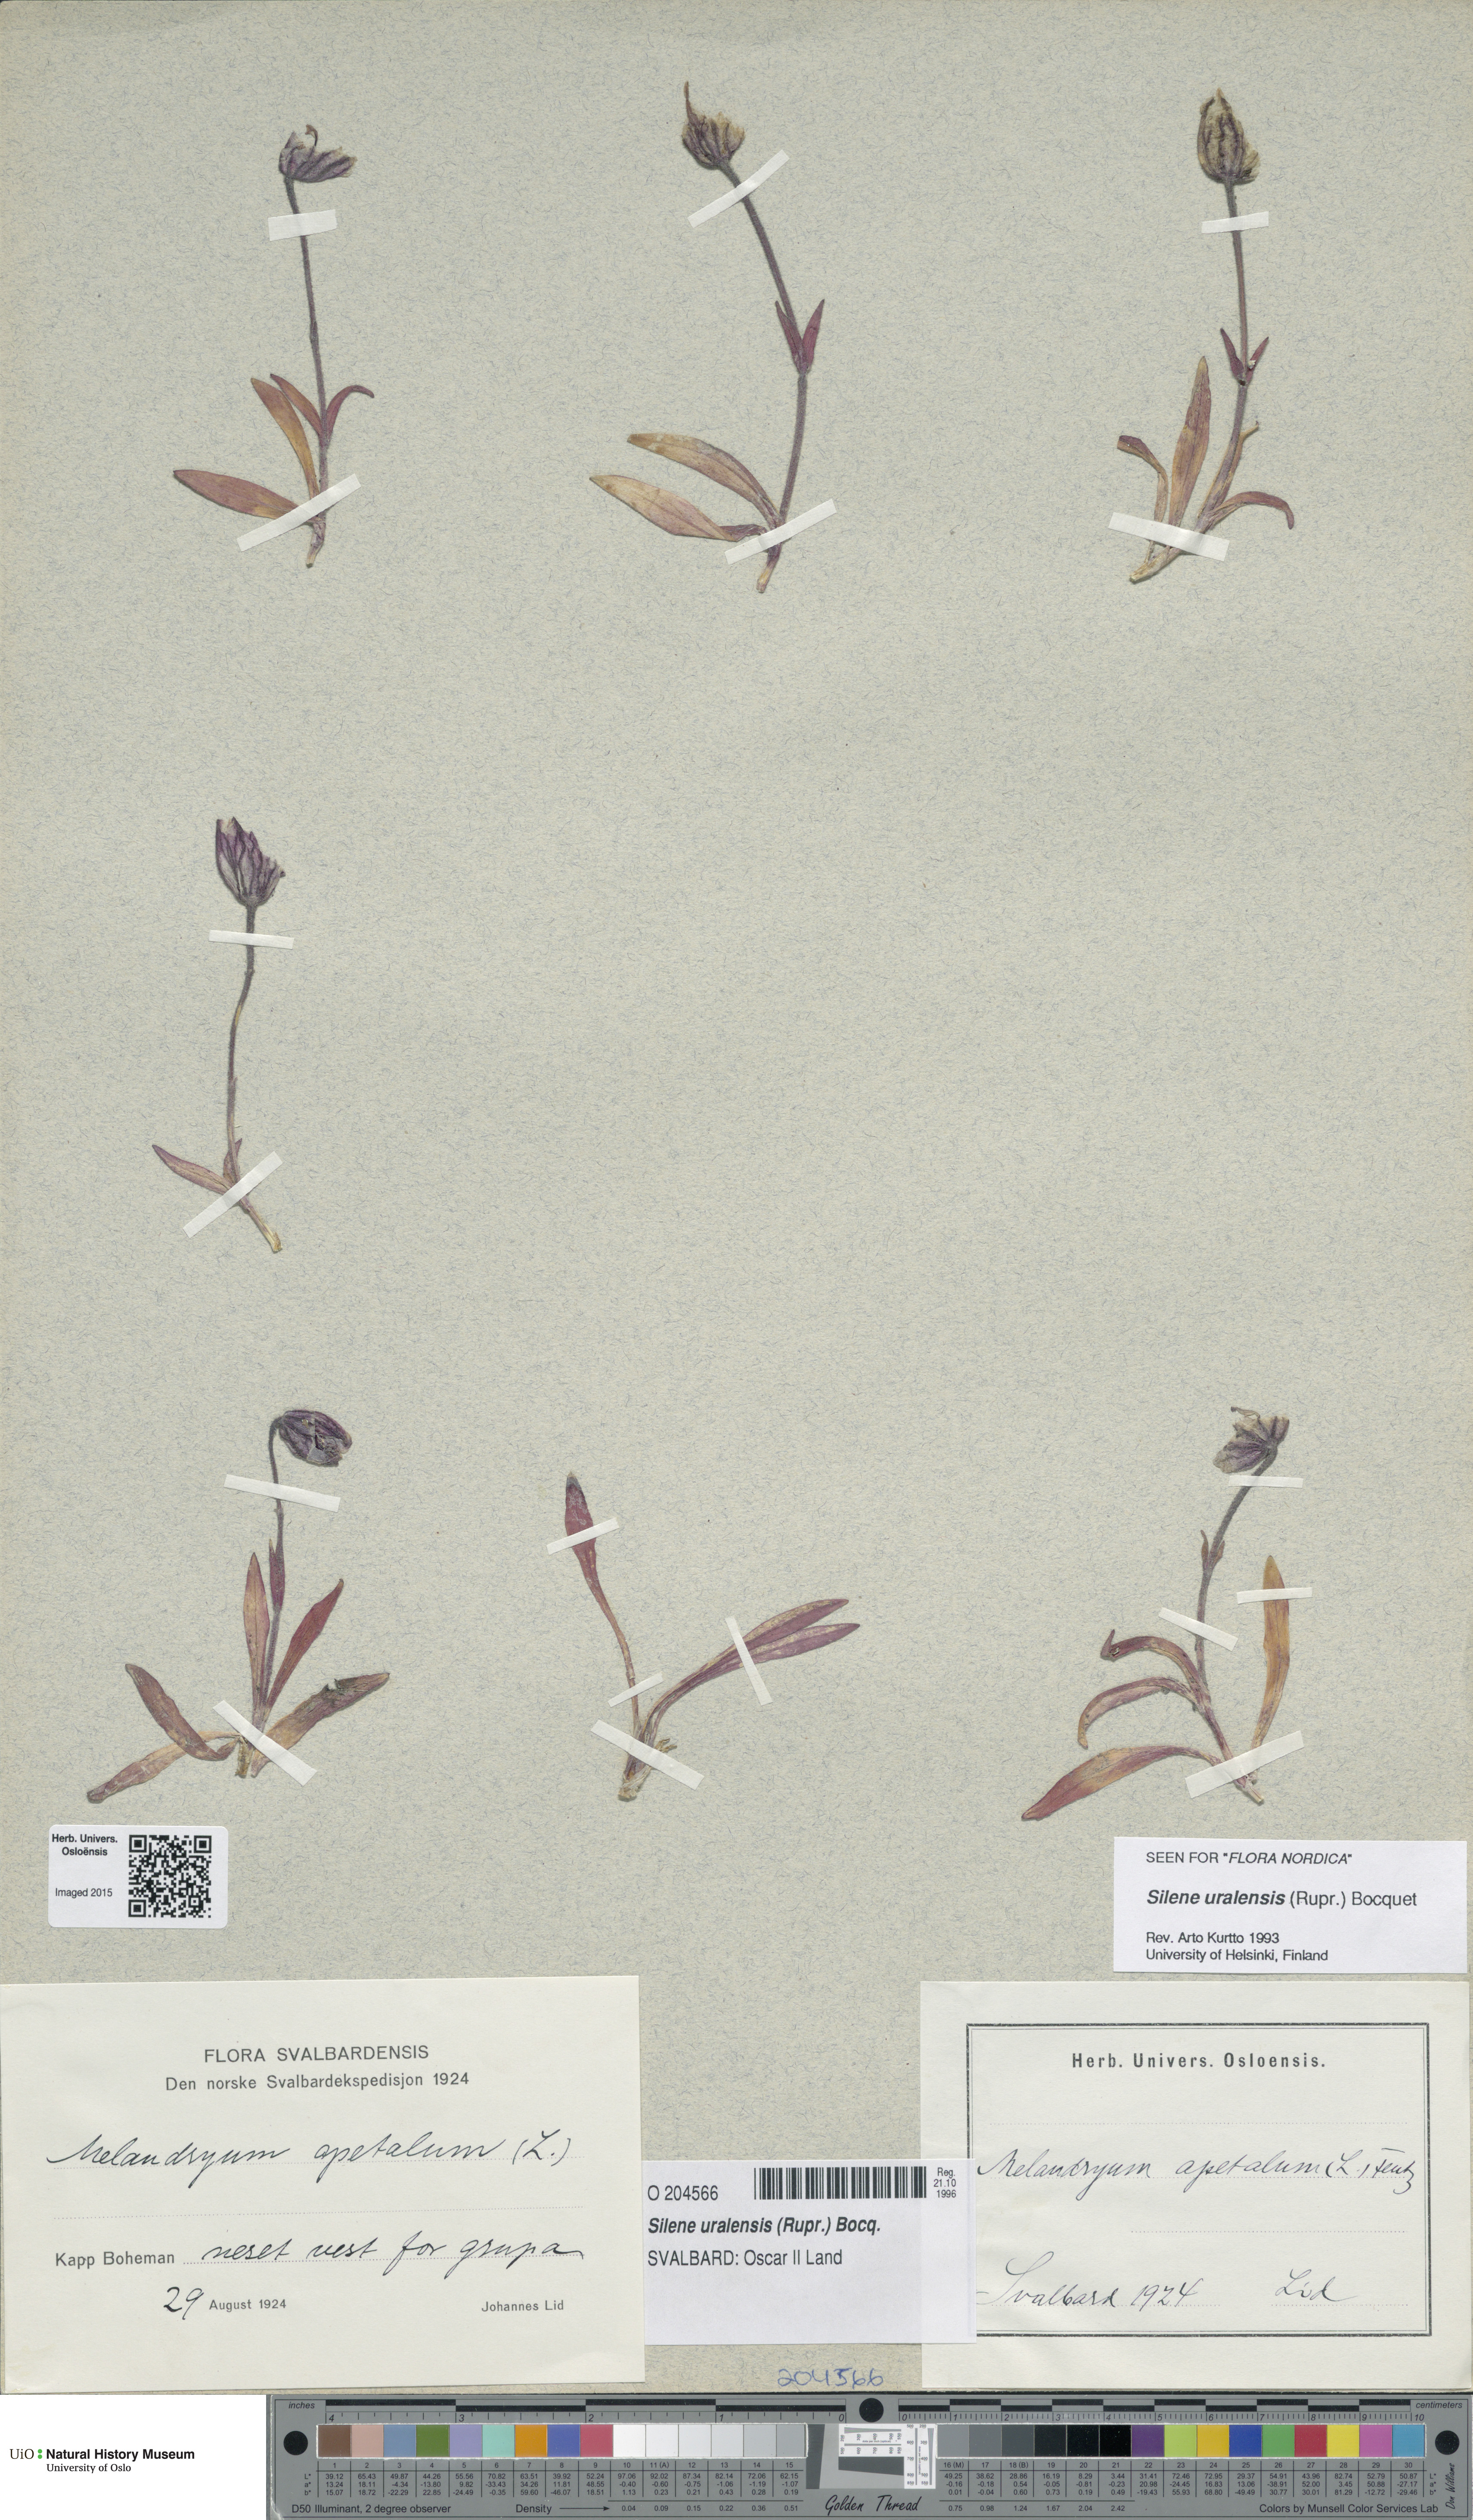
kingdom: Plantae
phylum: Tracheophyta
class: Magnoliopsida
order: Caryophyllales
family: Caryophyllaceae
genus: Silene
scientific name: Silene uralensis
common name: Nodding campion
